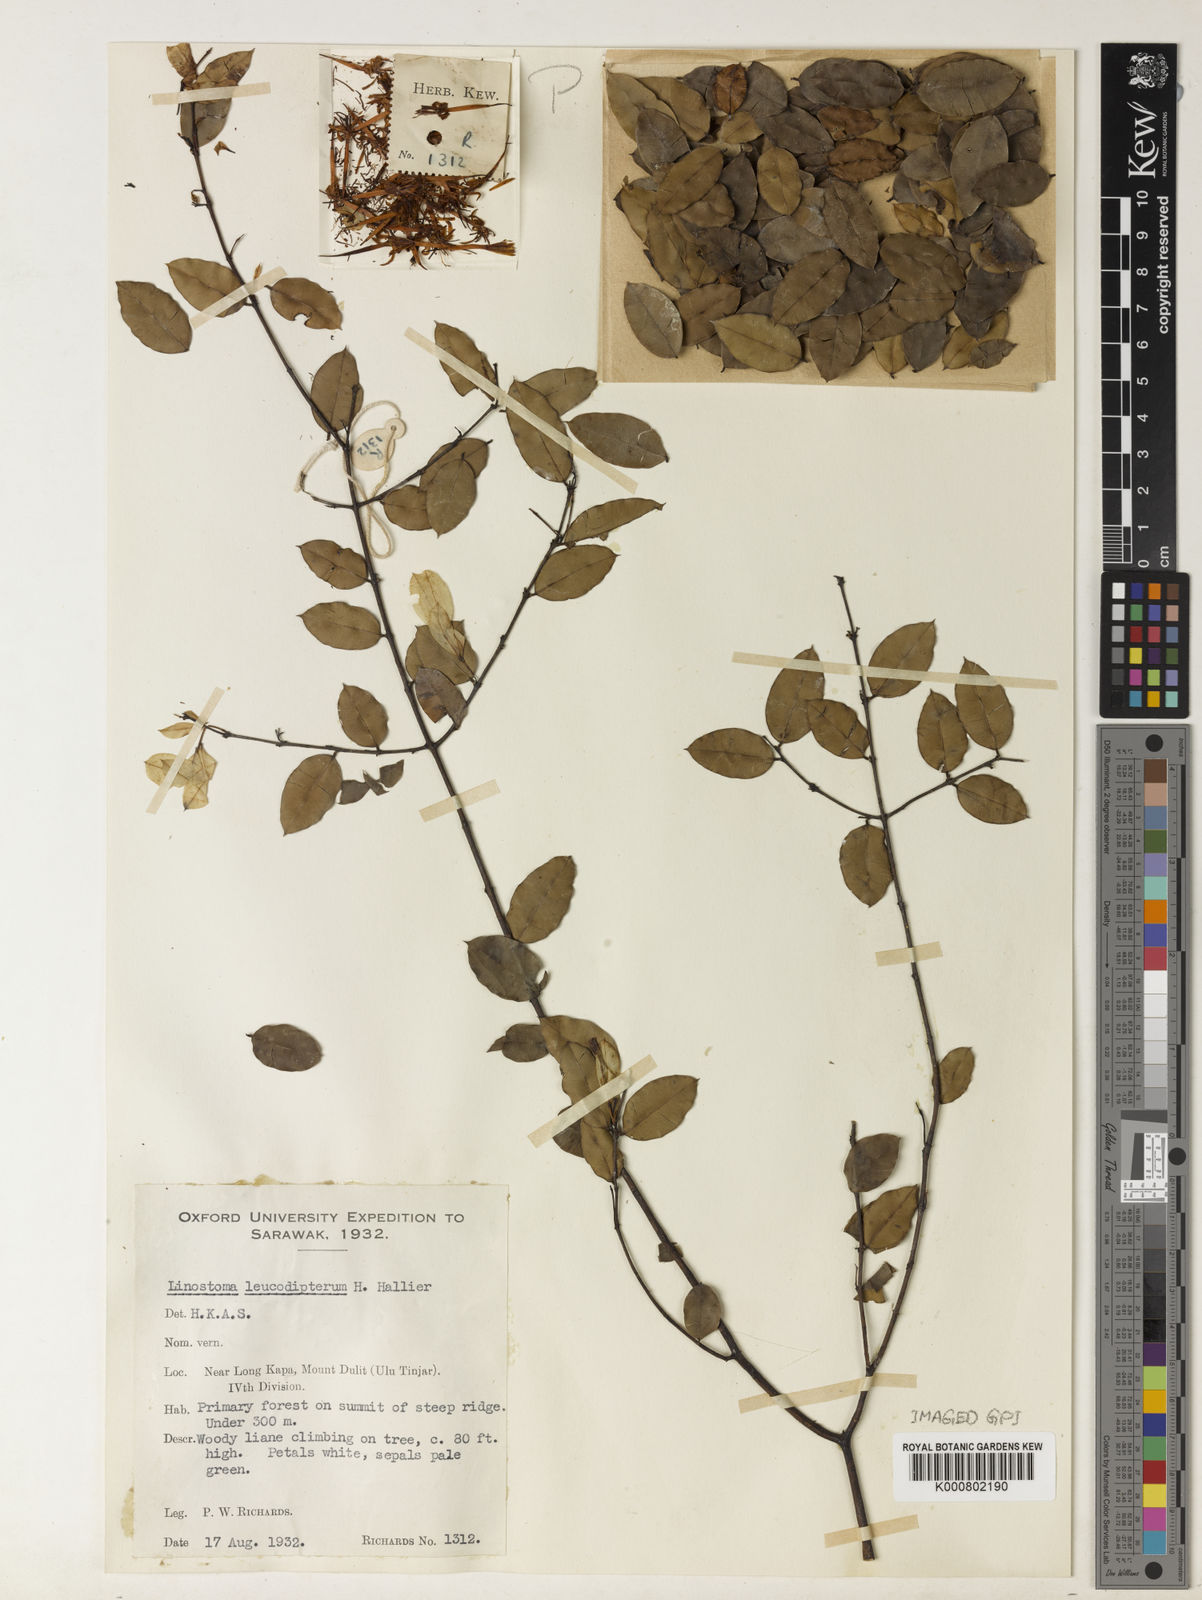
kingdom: Plantae
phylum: Tracheophyta
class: Magnoliopsida
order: Malvales
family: Thymelaeaceae
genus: Linostoma
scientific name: Linostoma pauciflorum
